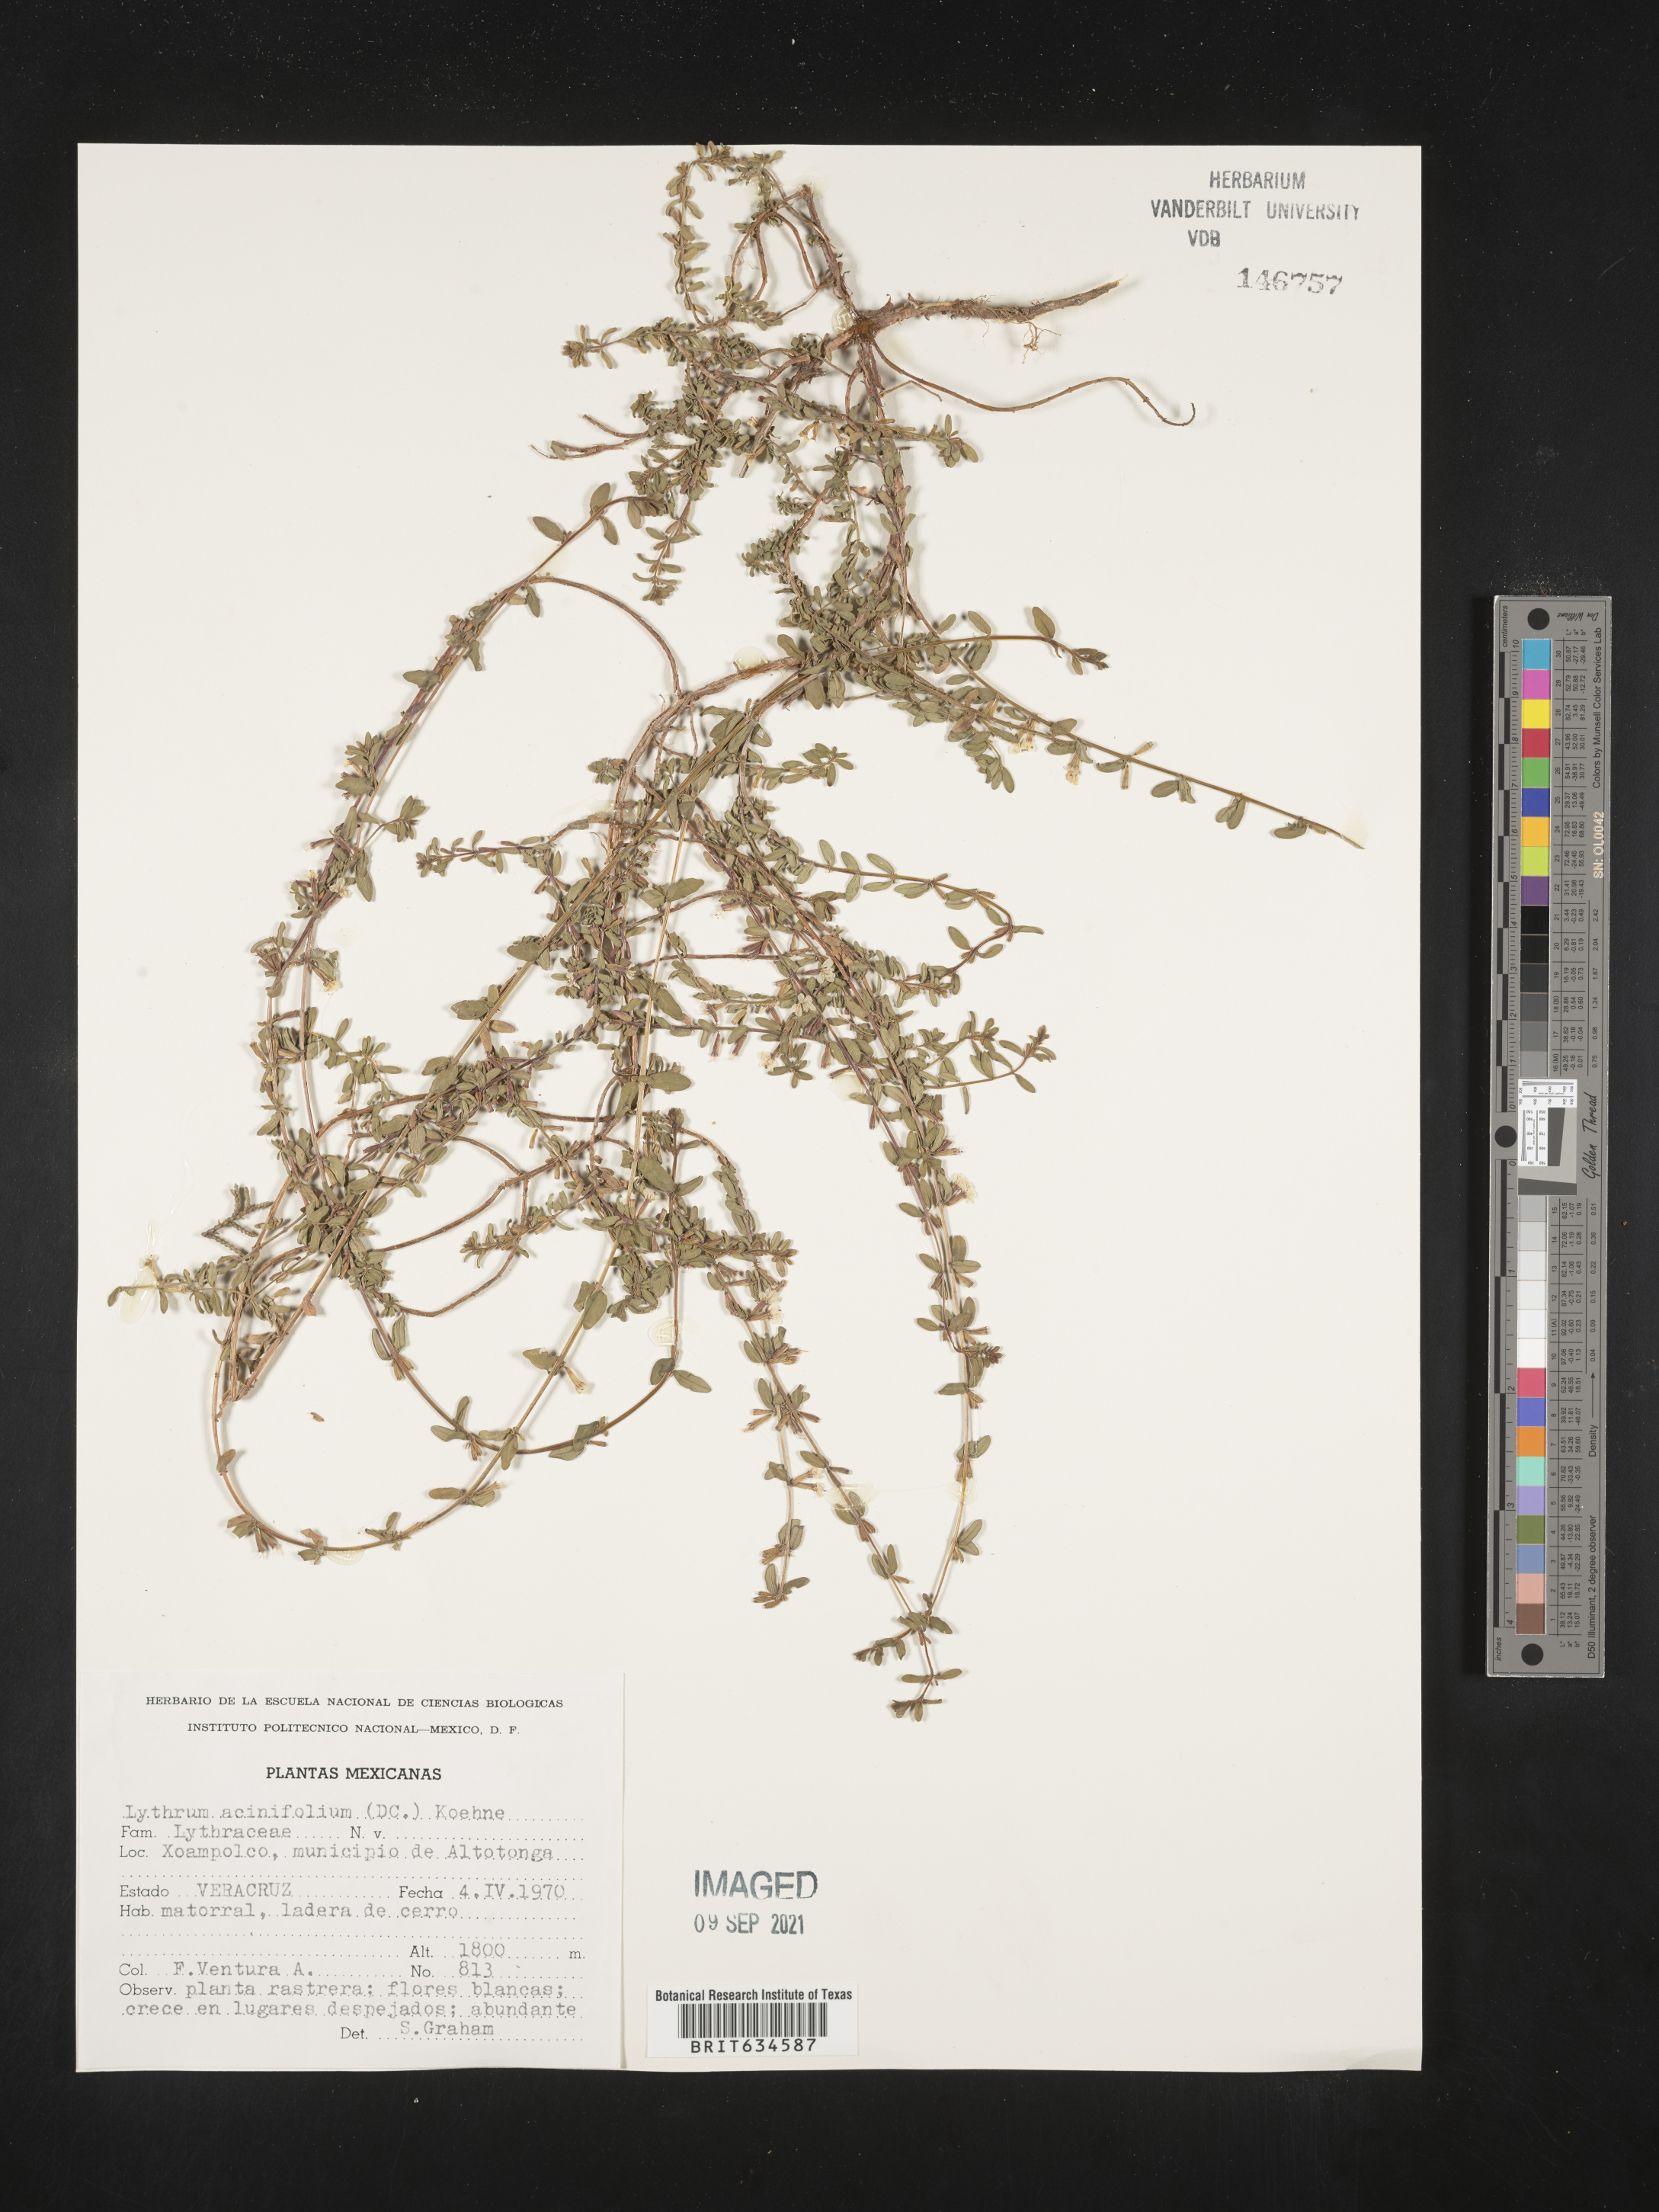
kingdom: Plantae
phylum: Tracheophyta
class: Magnoliopsida
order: Myrtales
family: Lythraceae
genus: Lythrum
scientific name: Lythrum
